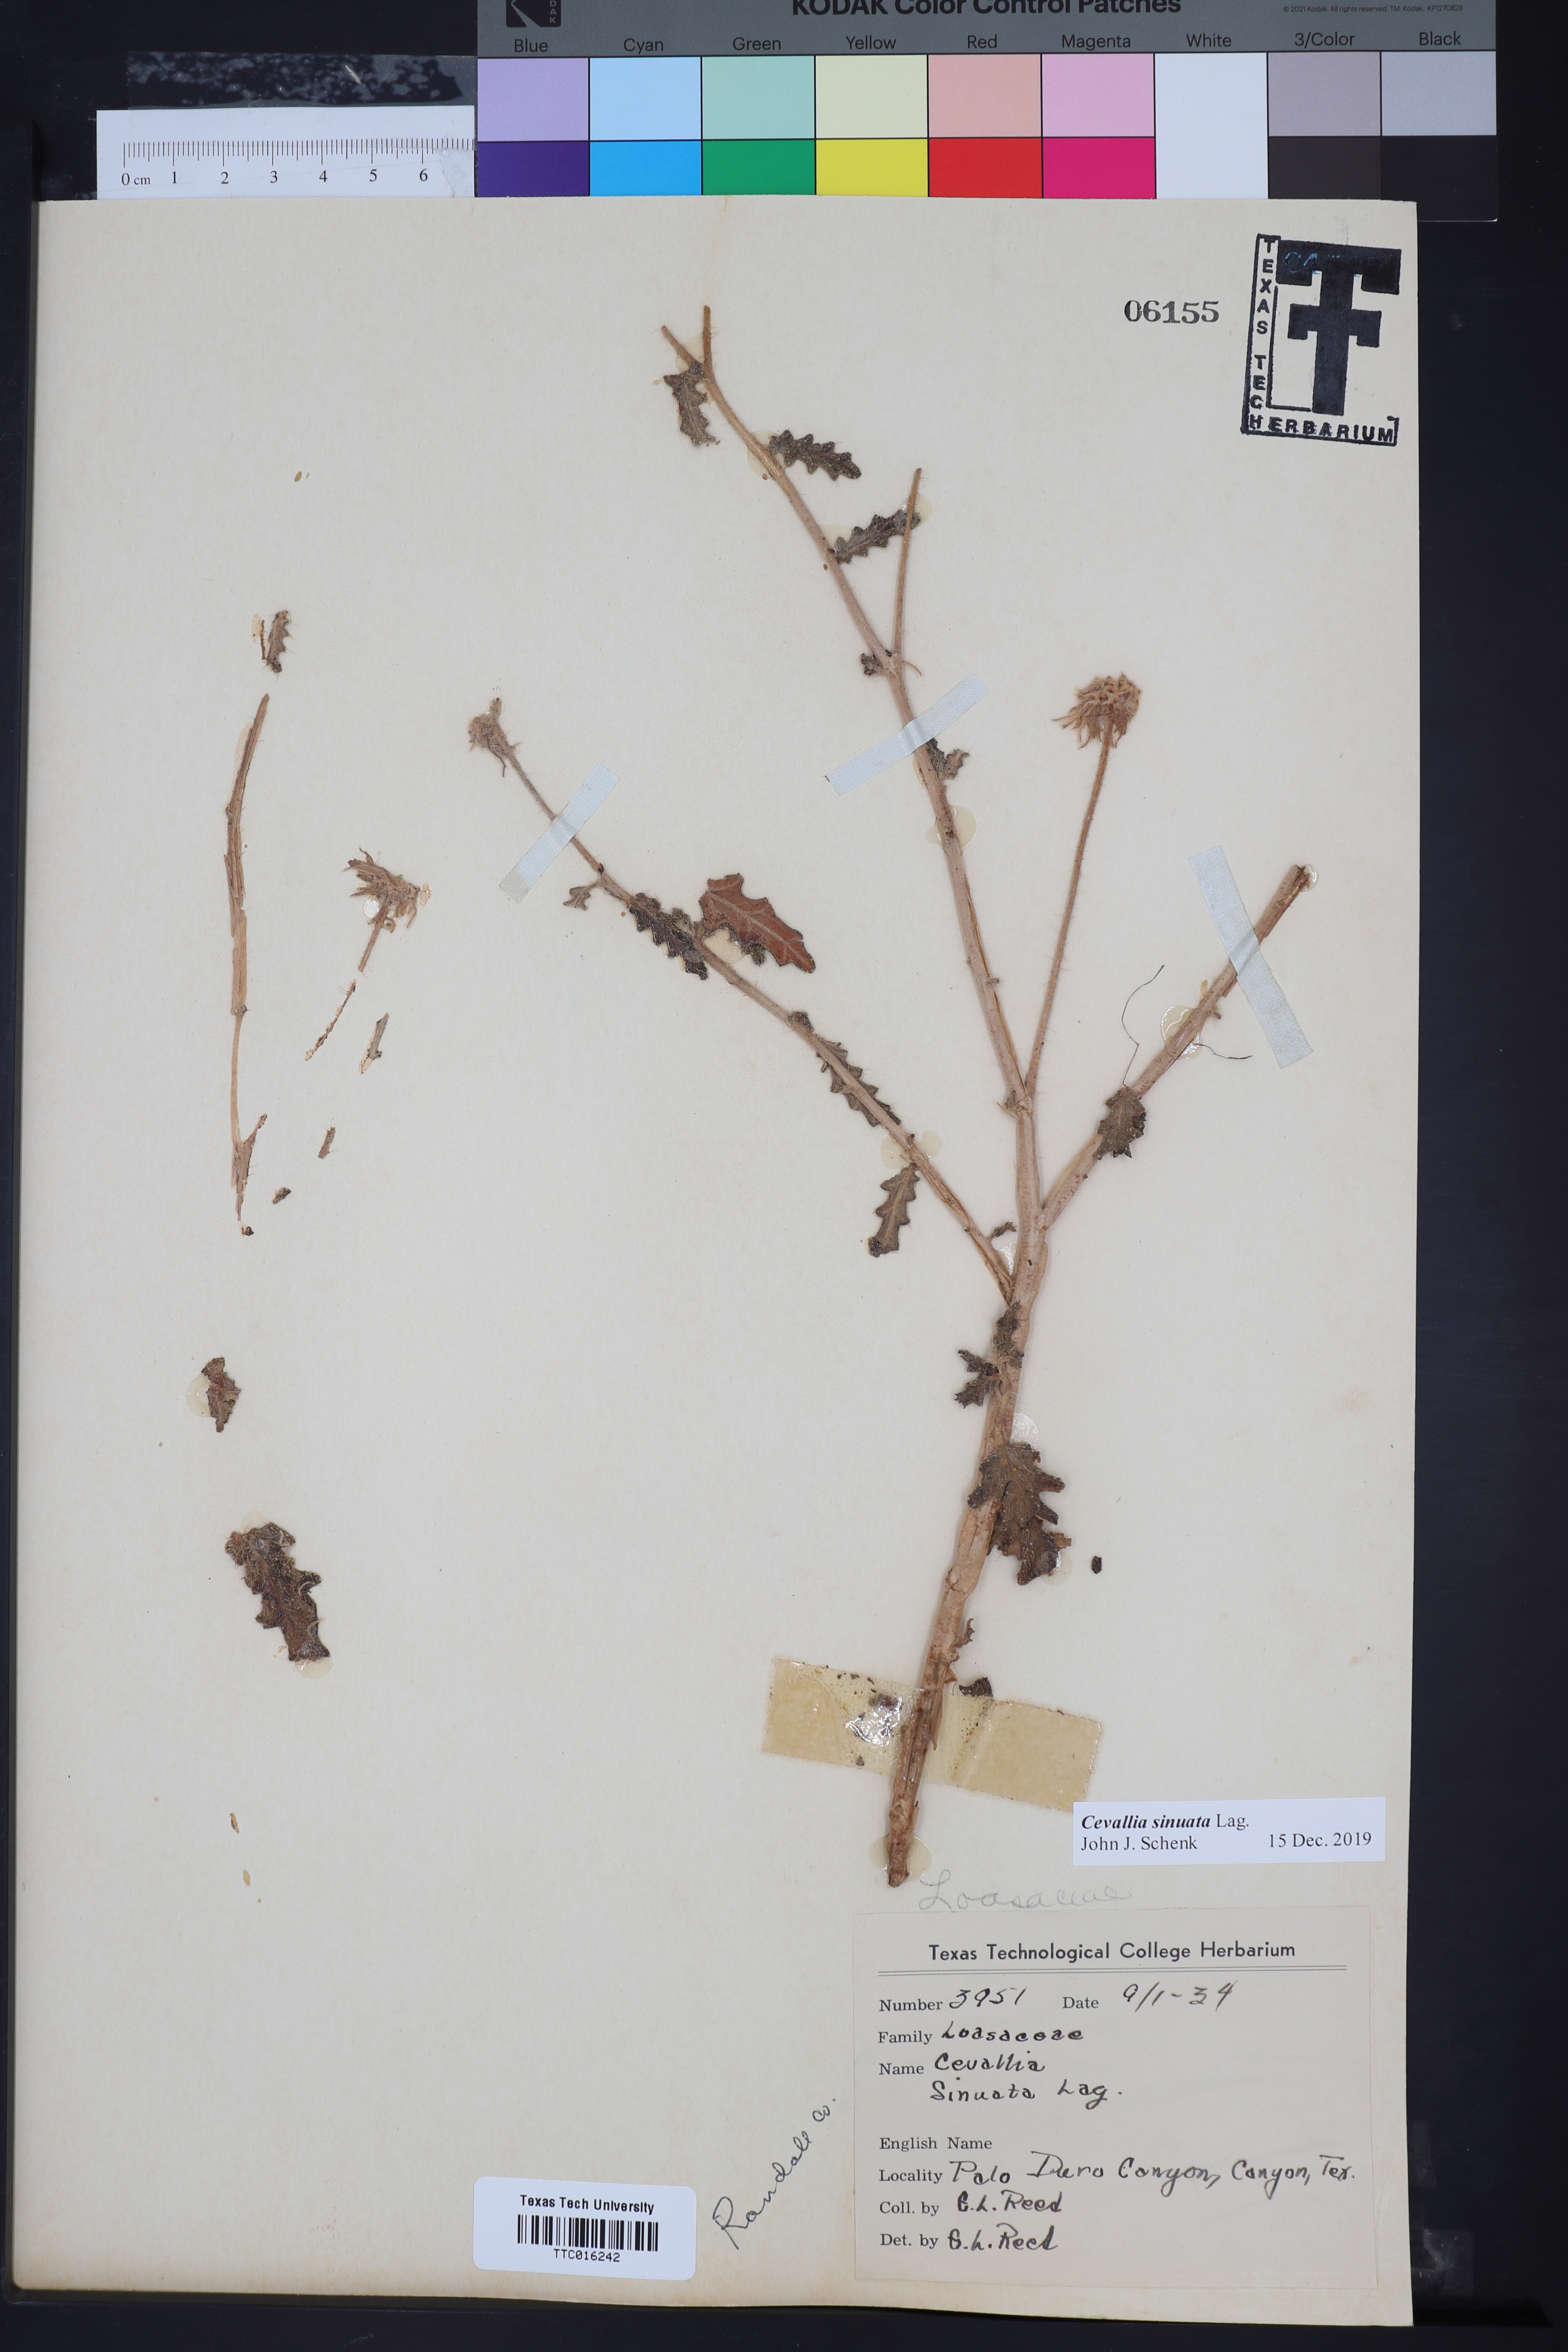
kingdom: Plantae
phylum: Tracheophyta
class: Magnoliopsida
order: Cornales
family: Loasaceae
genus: Cevallia
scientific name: Cevallia sinuata
